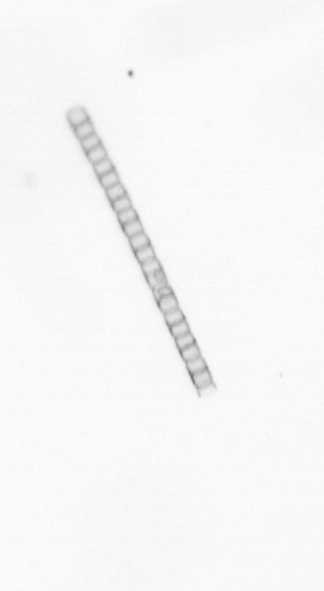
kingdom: Chromista
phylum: Ochrophyta
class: Bacillariophyceae
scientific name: Bacillariophyceae
